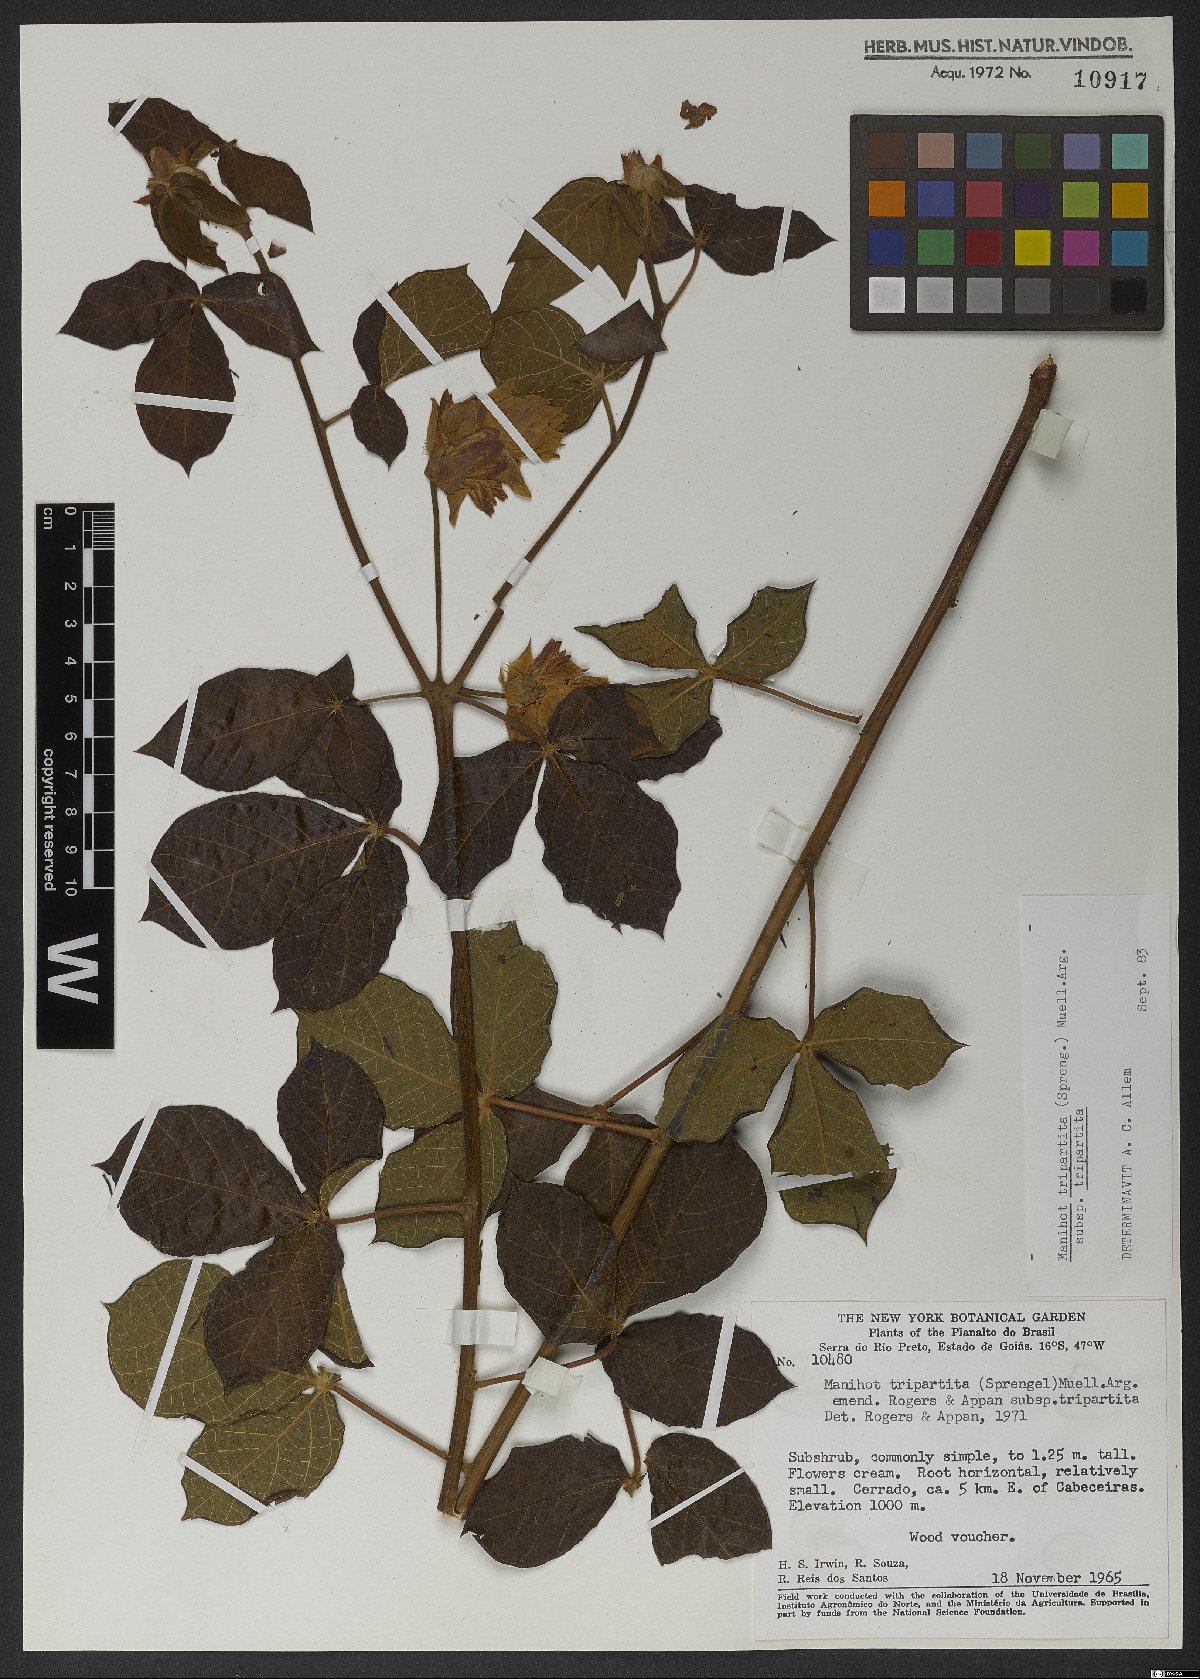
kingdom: Plantae
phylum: Tracheophyta
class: Magnoliopsida
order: Malpighiales
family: Euphorbiaceae
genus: Manihot
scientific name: Manihot tripartita
